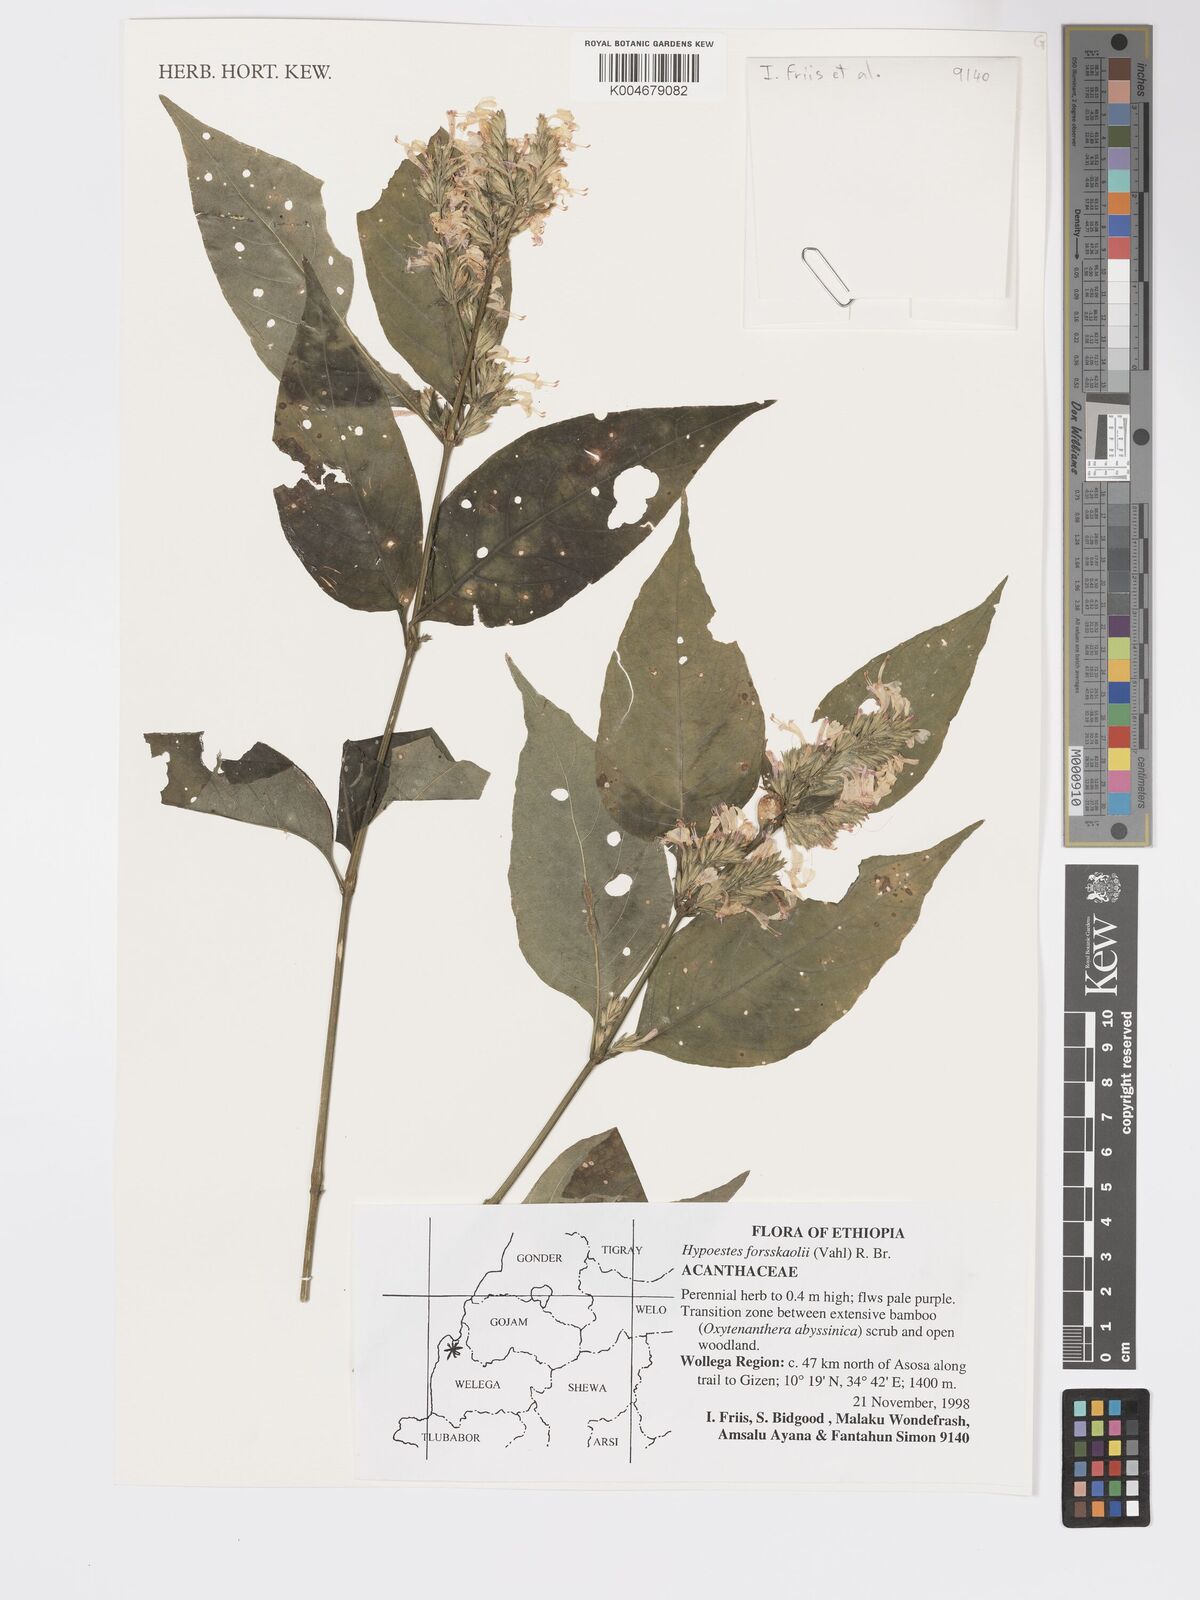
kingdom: Plantae
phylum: Tracheophyta
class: Magnoliopsida
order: Lamiales
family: Acanthaceae
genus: Hypoestes
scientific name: Hypoestes forskaolii
